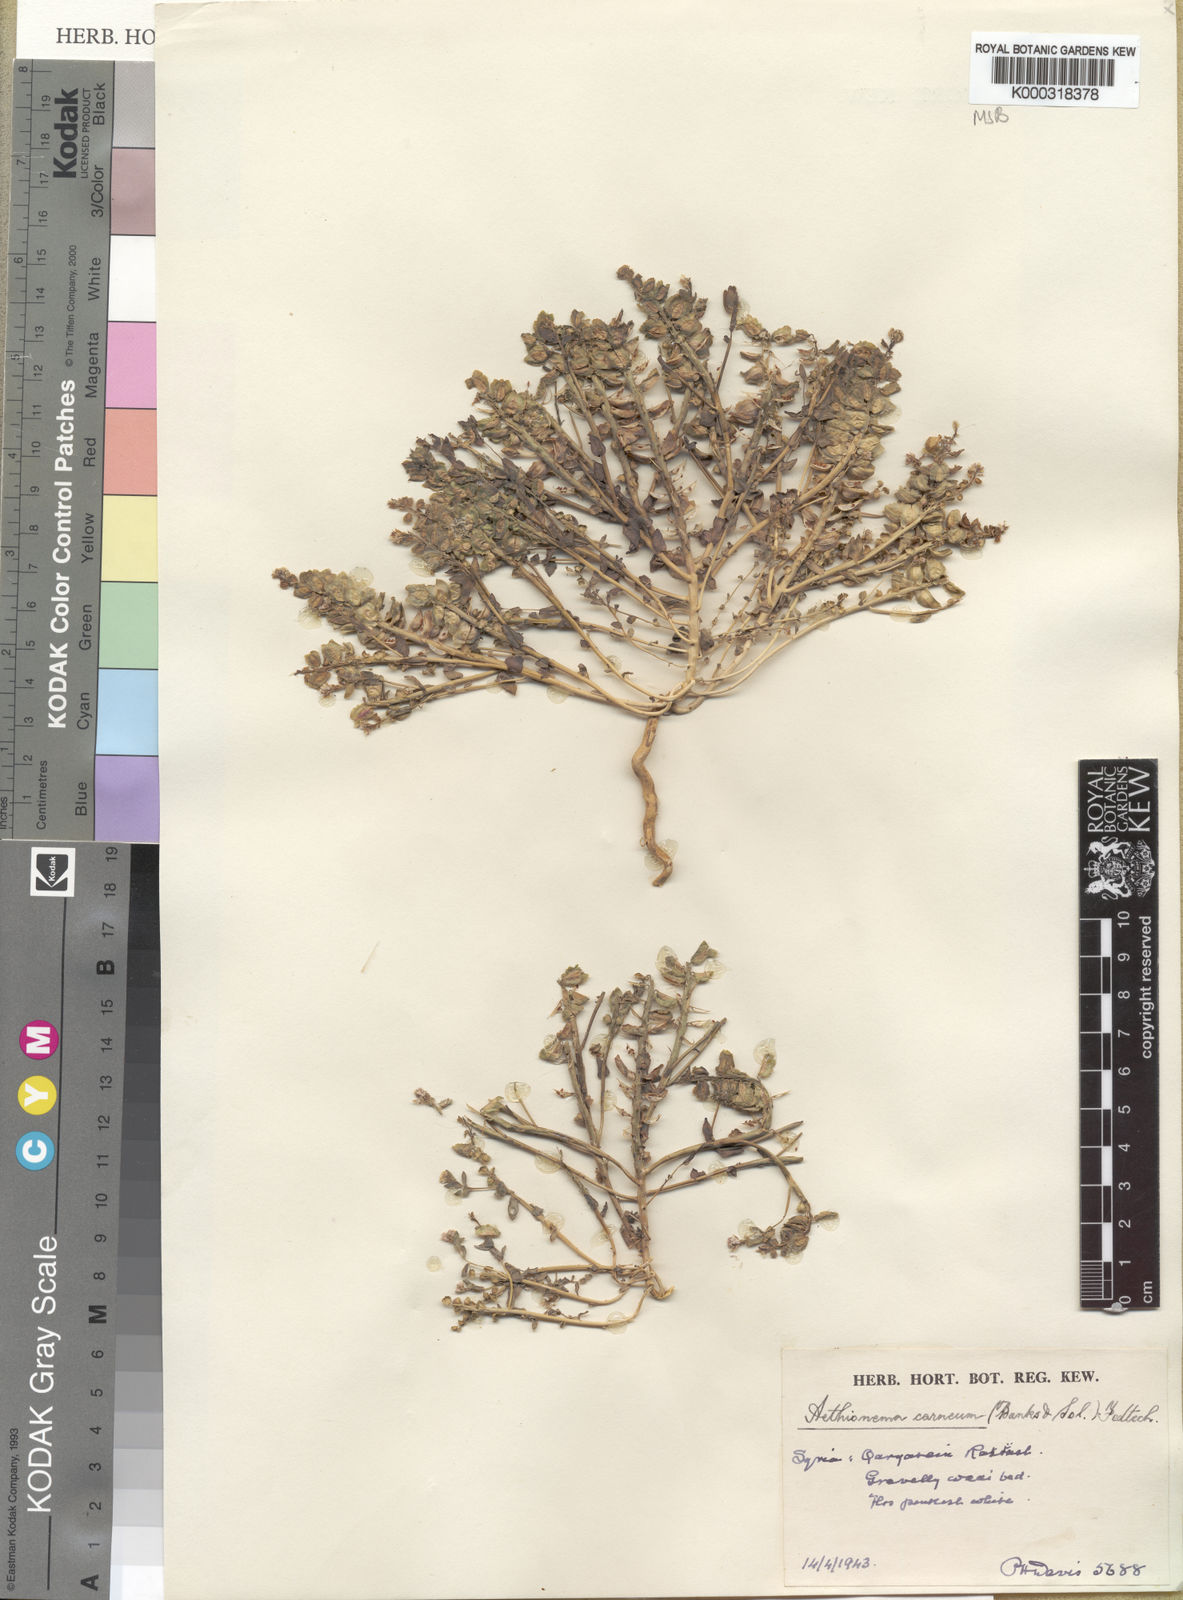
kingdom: Plantae
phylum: Tracheophyta
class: Magnoliopsida
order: Brassicales
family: Brassicaceae
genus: Aethionema
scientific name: Aethionema carneum
